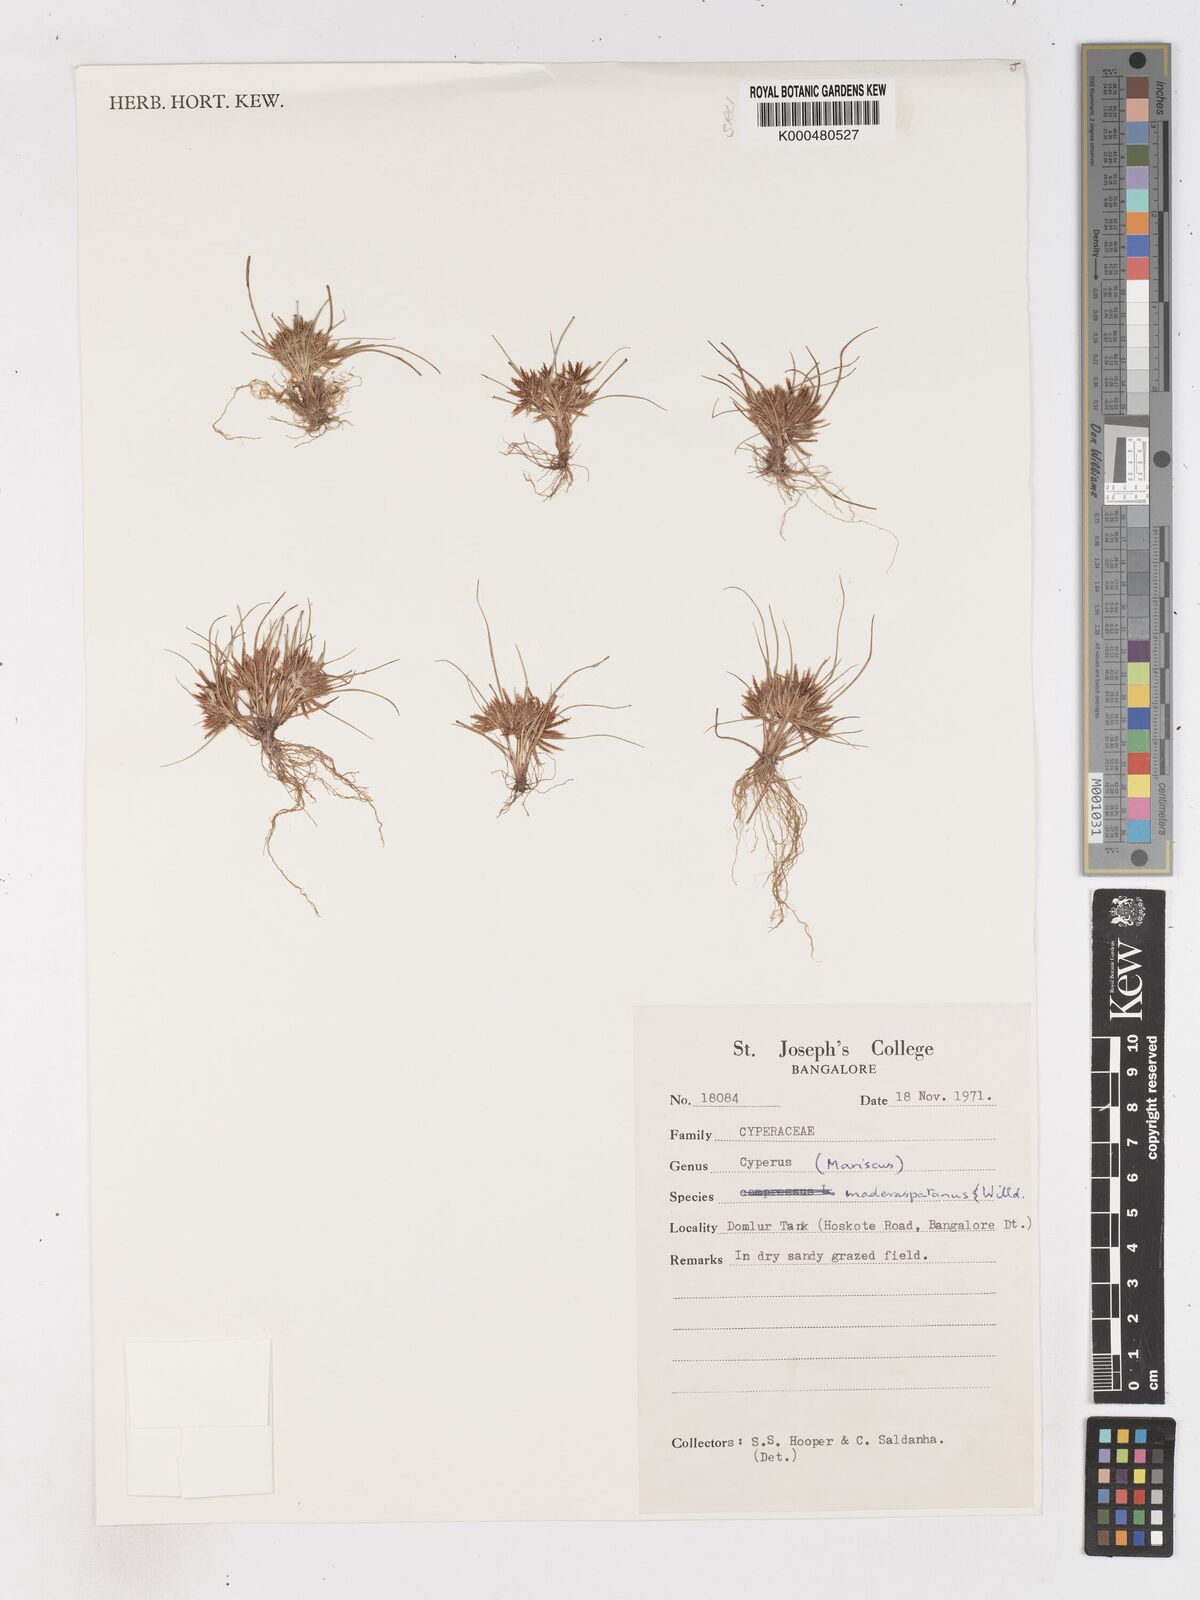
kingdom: Plantae
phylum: Tracheophyta
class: Liliopsida
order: Poales
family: Cyperaceae
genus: Cyperus
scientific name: Cyperus maderaspatanus
